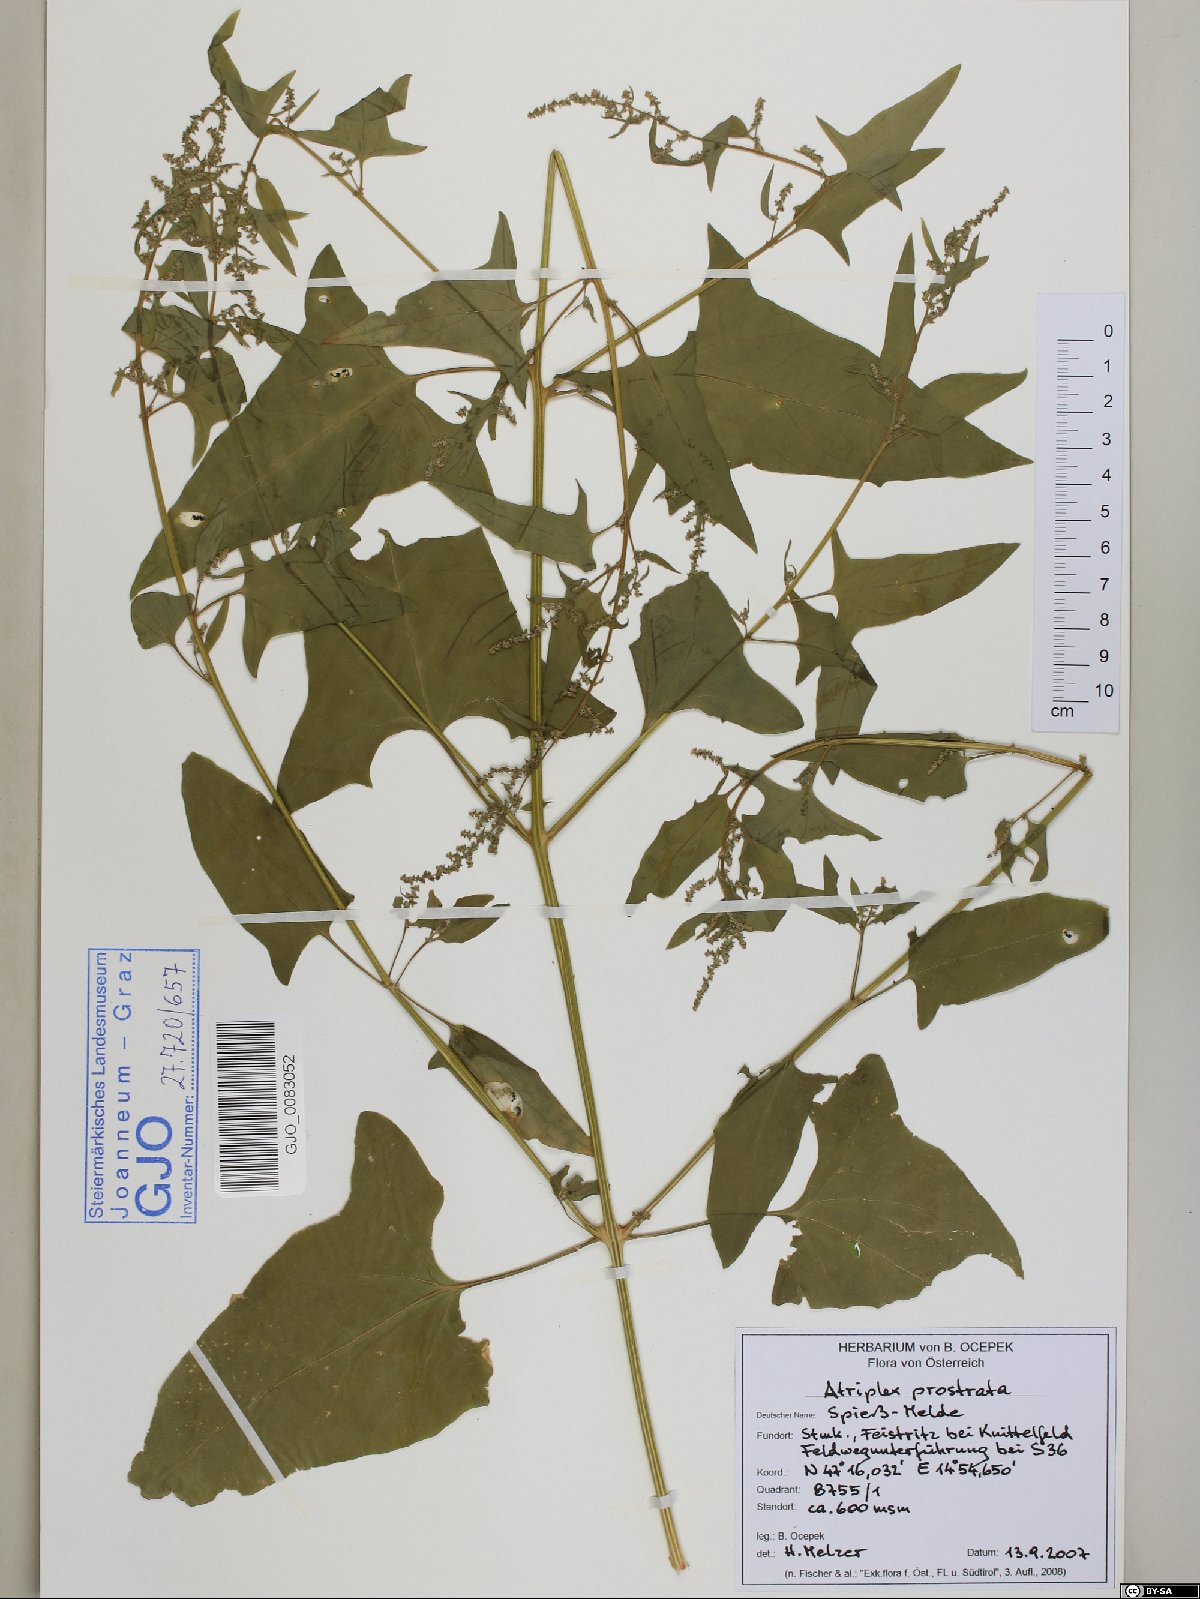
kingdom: Plantae
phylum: Tracheophyta
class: Magnoliopsida
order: Caryophyllales
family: Amaranthaceae
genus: Atriplex
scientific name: Atriplex prostrata
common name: Spear-leaved orache
